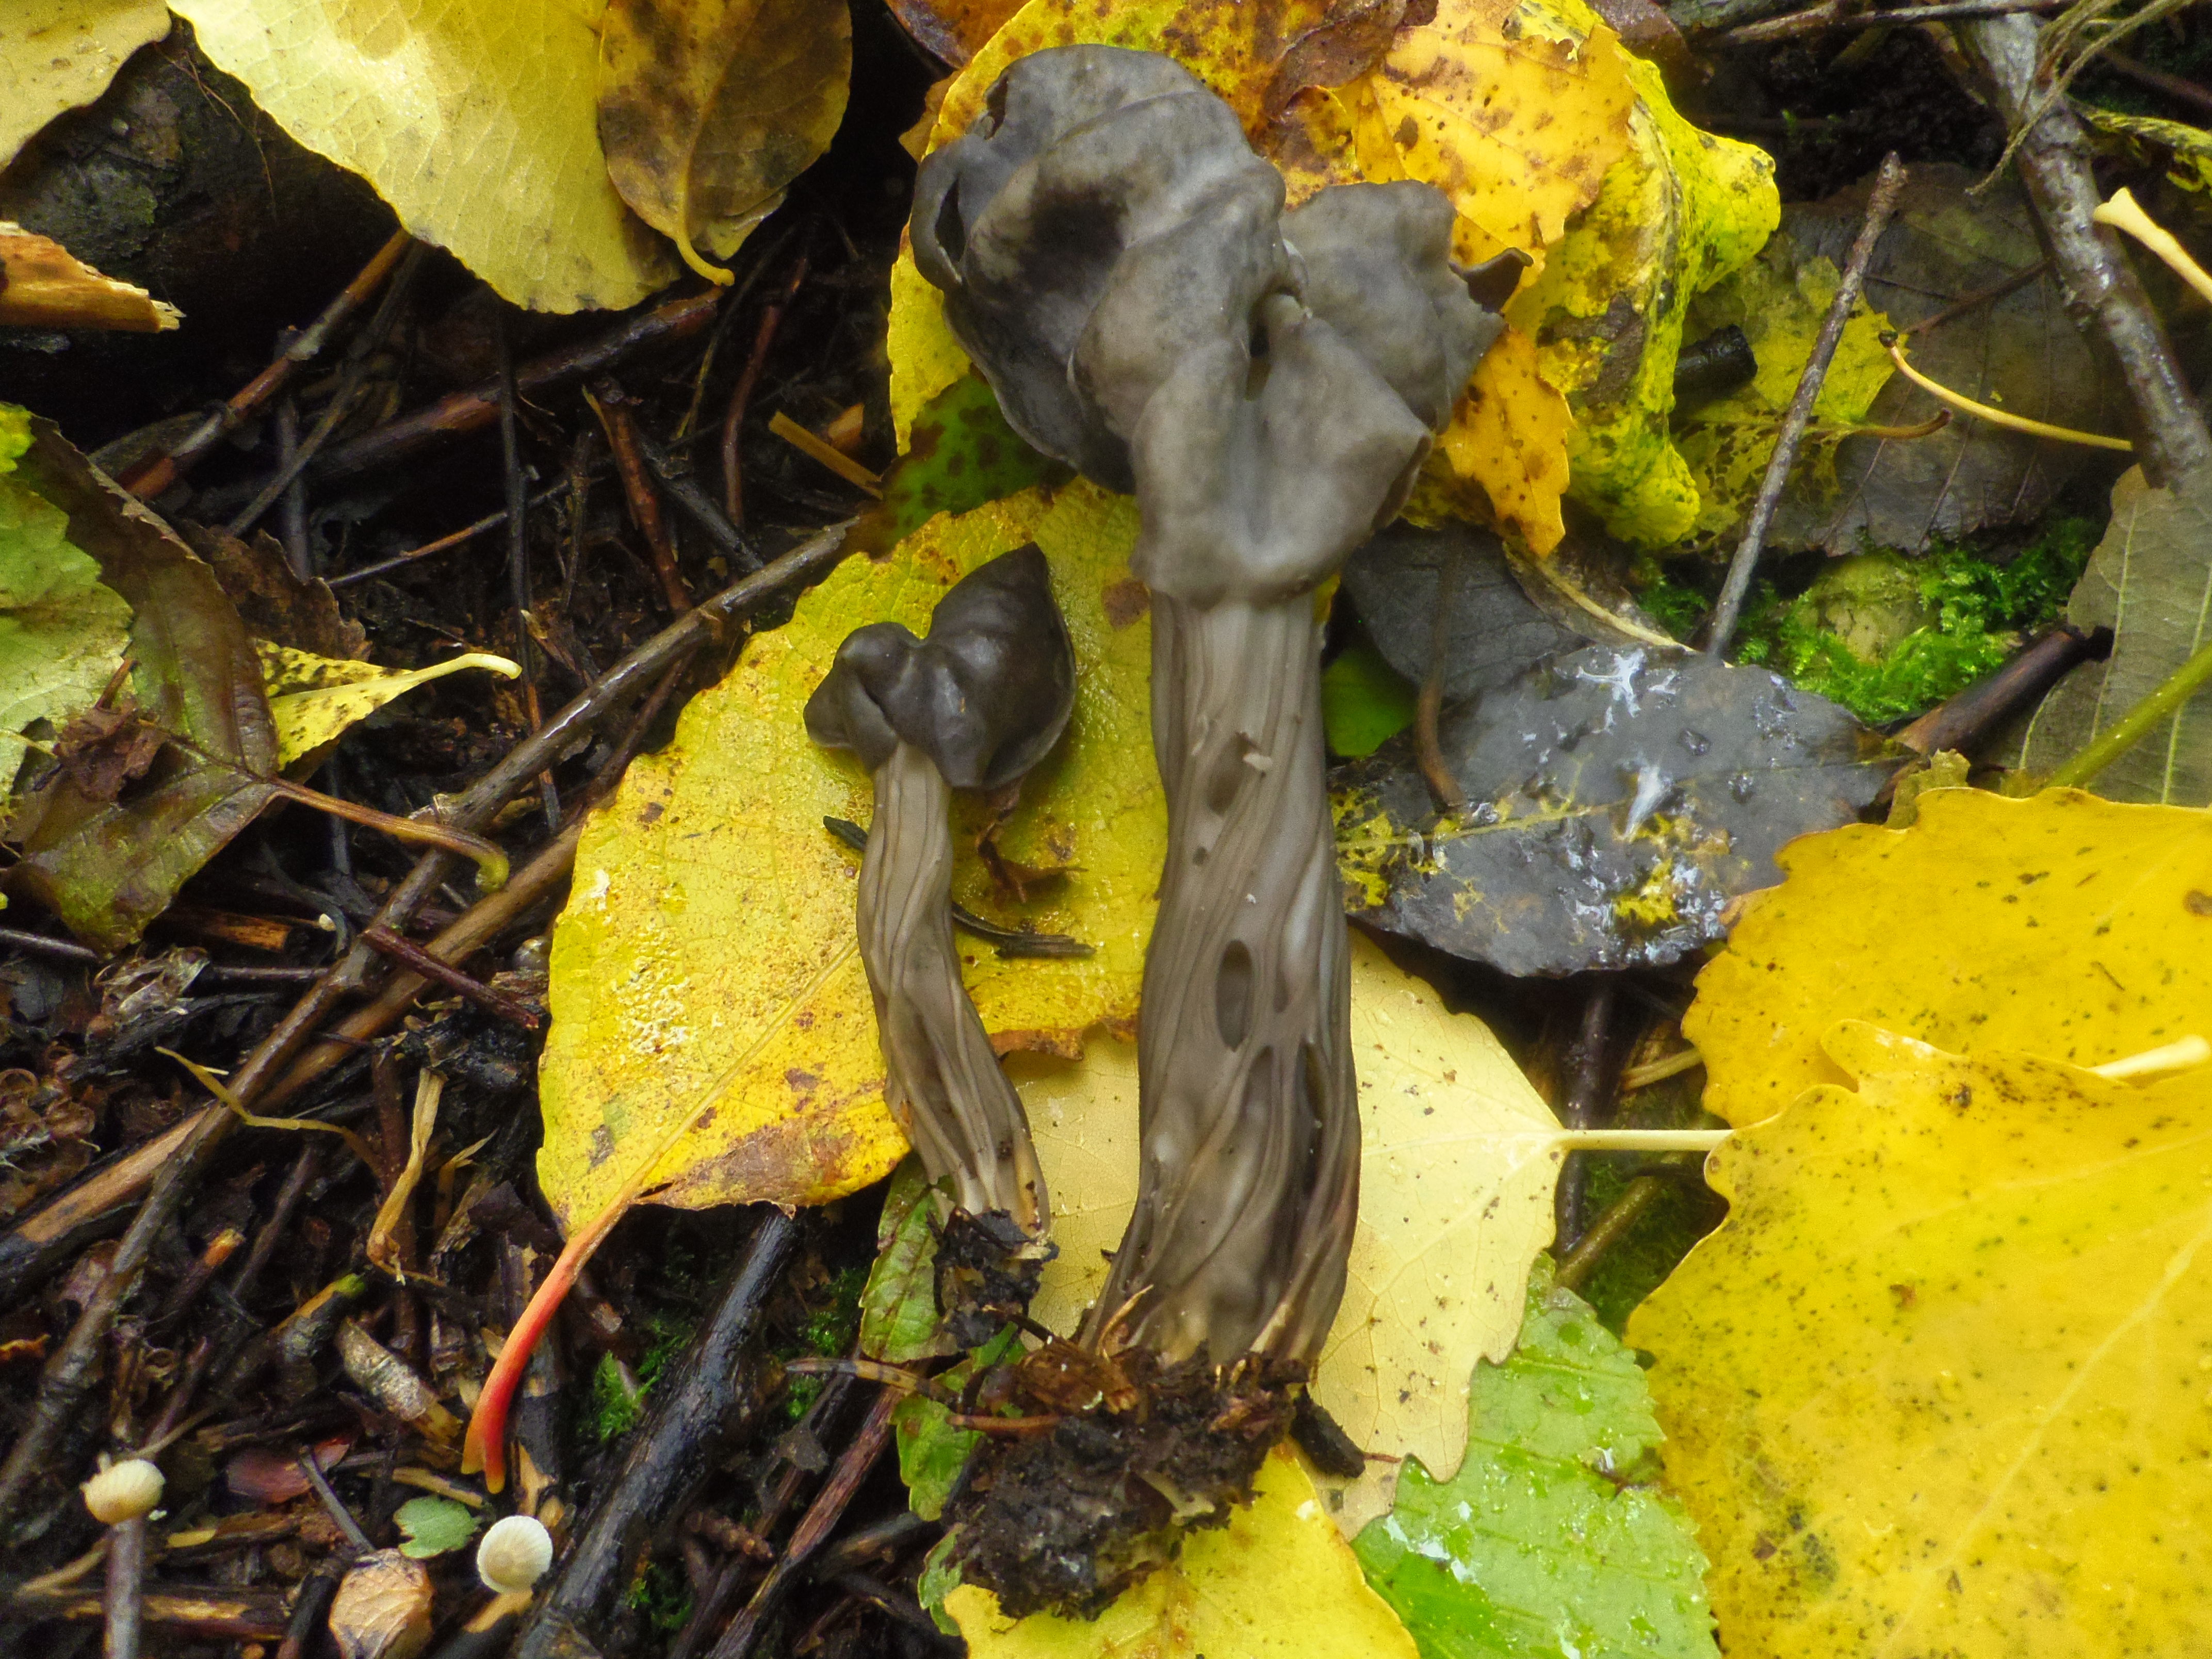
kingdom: Fungi
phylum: Ascomycota
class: Pezizomycetes
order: Pezizales
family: Helvellaceae
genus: Helvella
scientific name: Helvella lacunosa
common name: Elfin saddle
